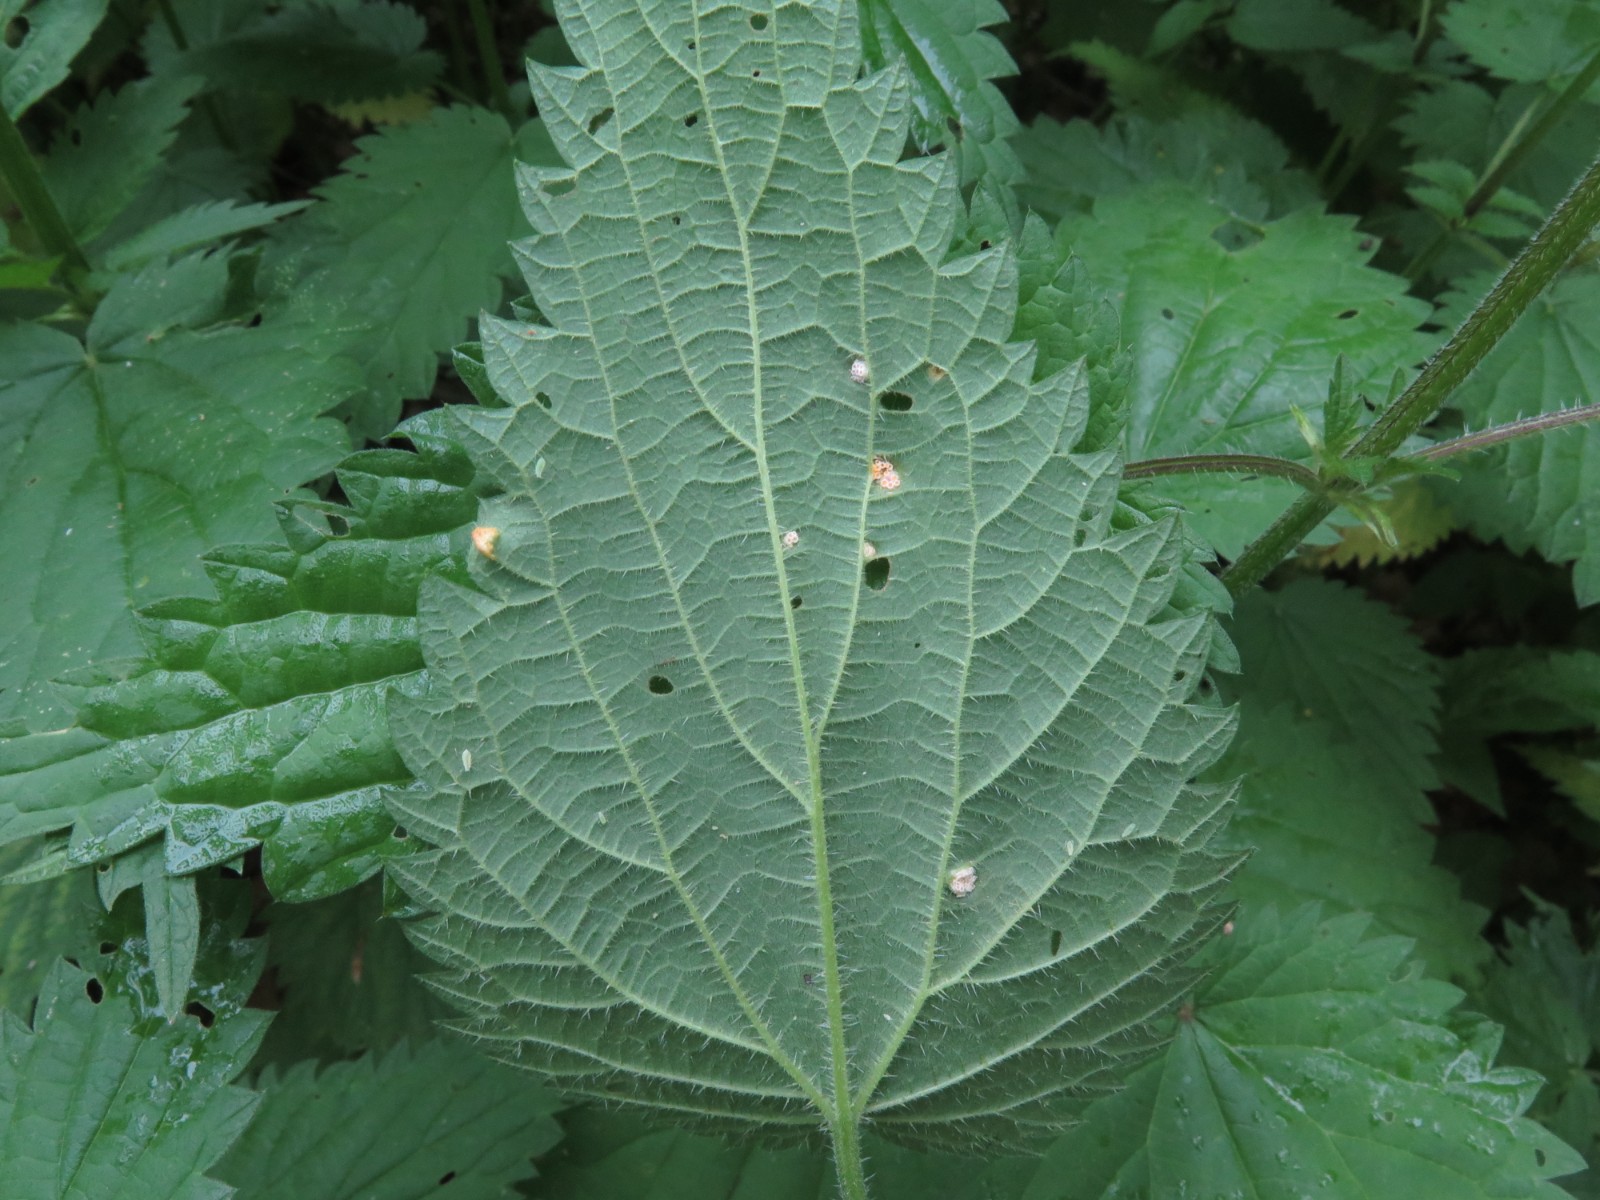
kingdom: Fungi
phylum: Basidiomycota
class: Pucciniomycetes
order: Pucciniales
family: Pucciniaceae
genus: Puccinia
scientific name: Puccinia urticata
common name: nældegalle-tvecellerust
